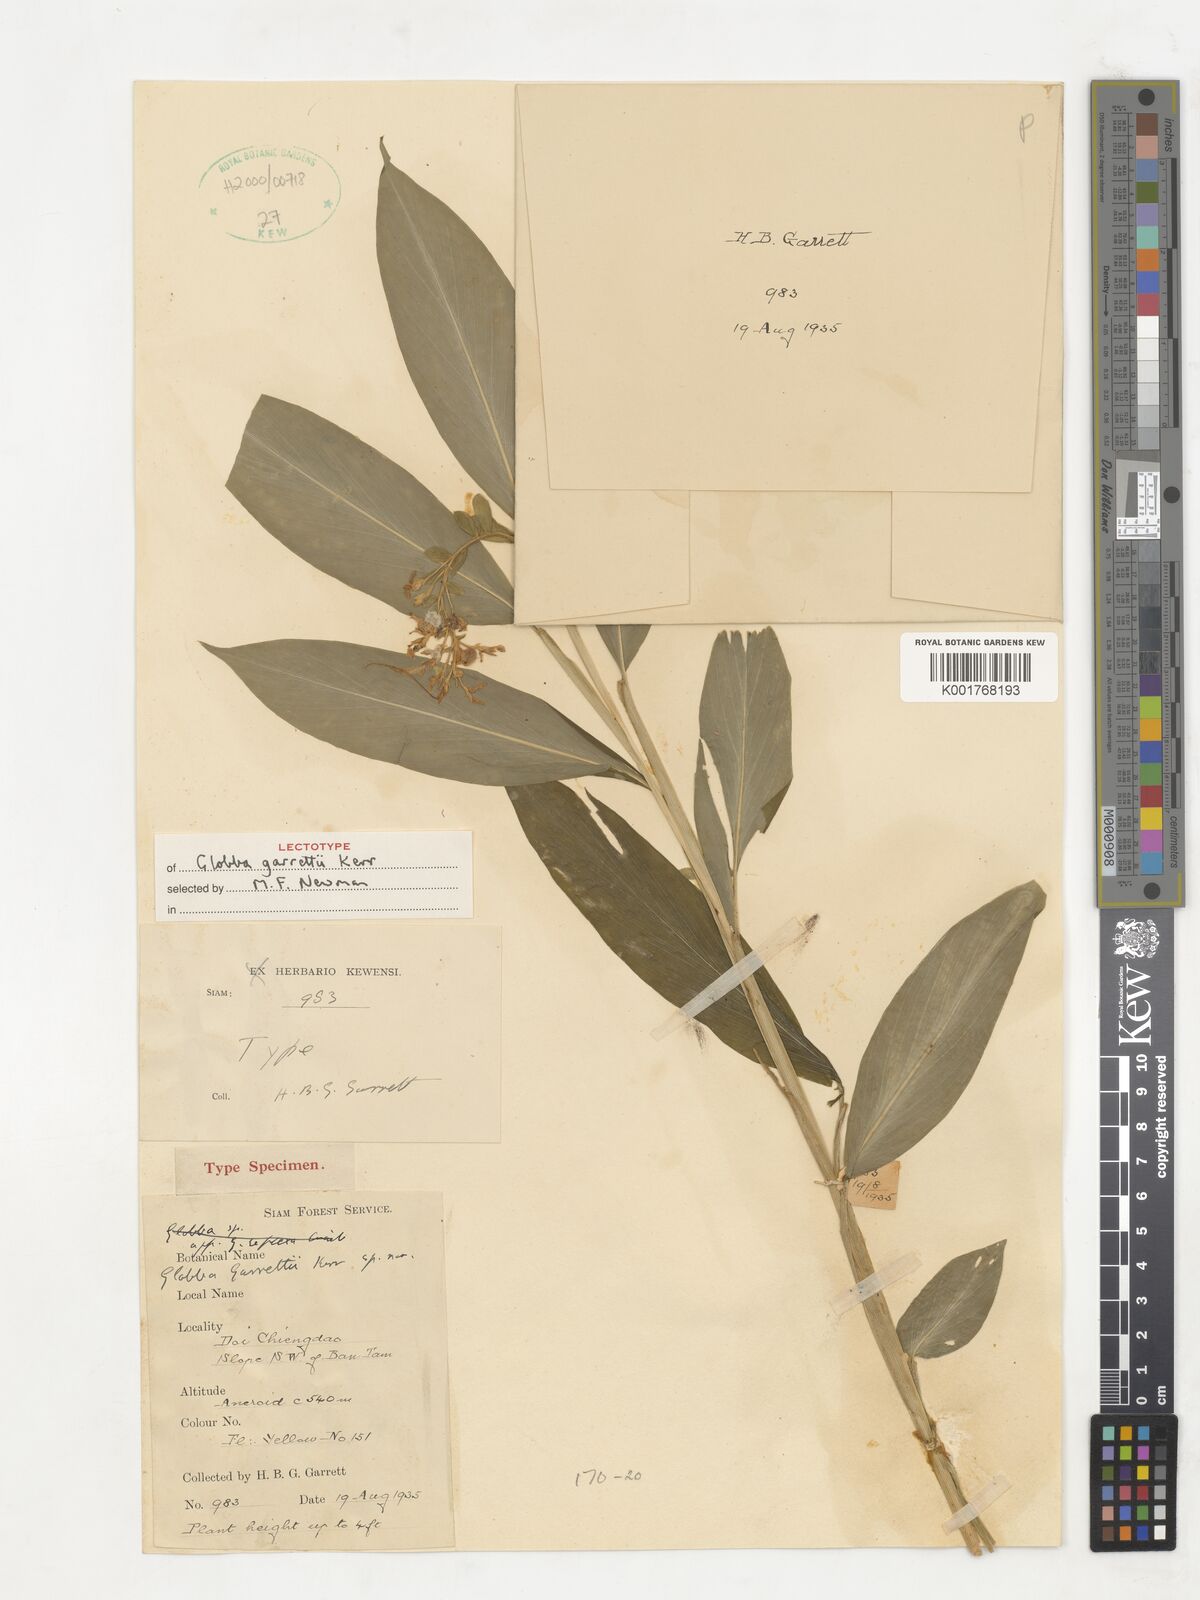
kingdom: Plantae
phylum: Tracheophyta
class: Liliopsida
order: Zingiberales
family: Zingiberaceae
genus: Globba
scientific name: Globba garrettii
